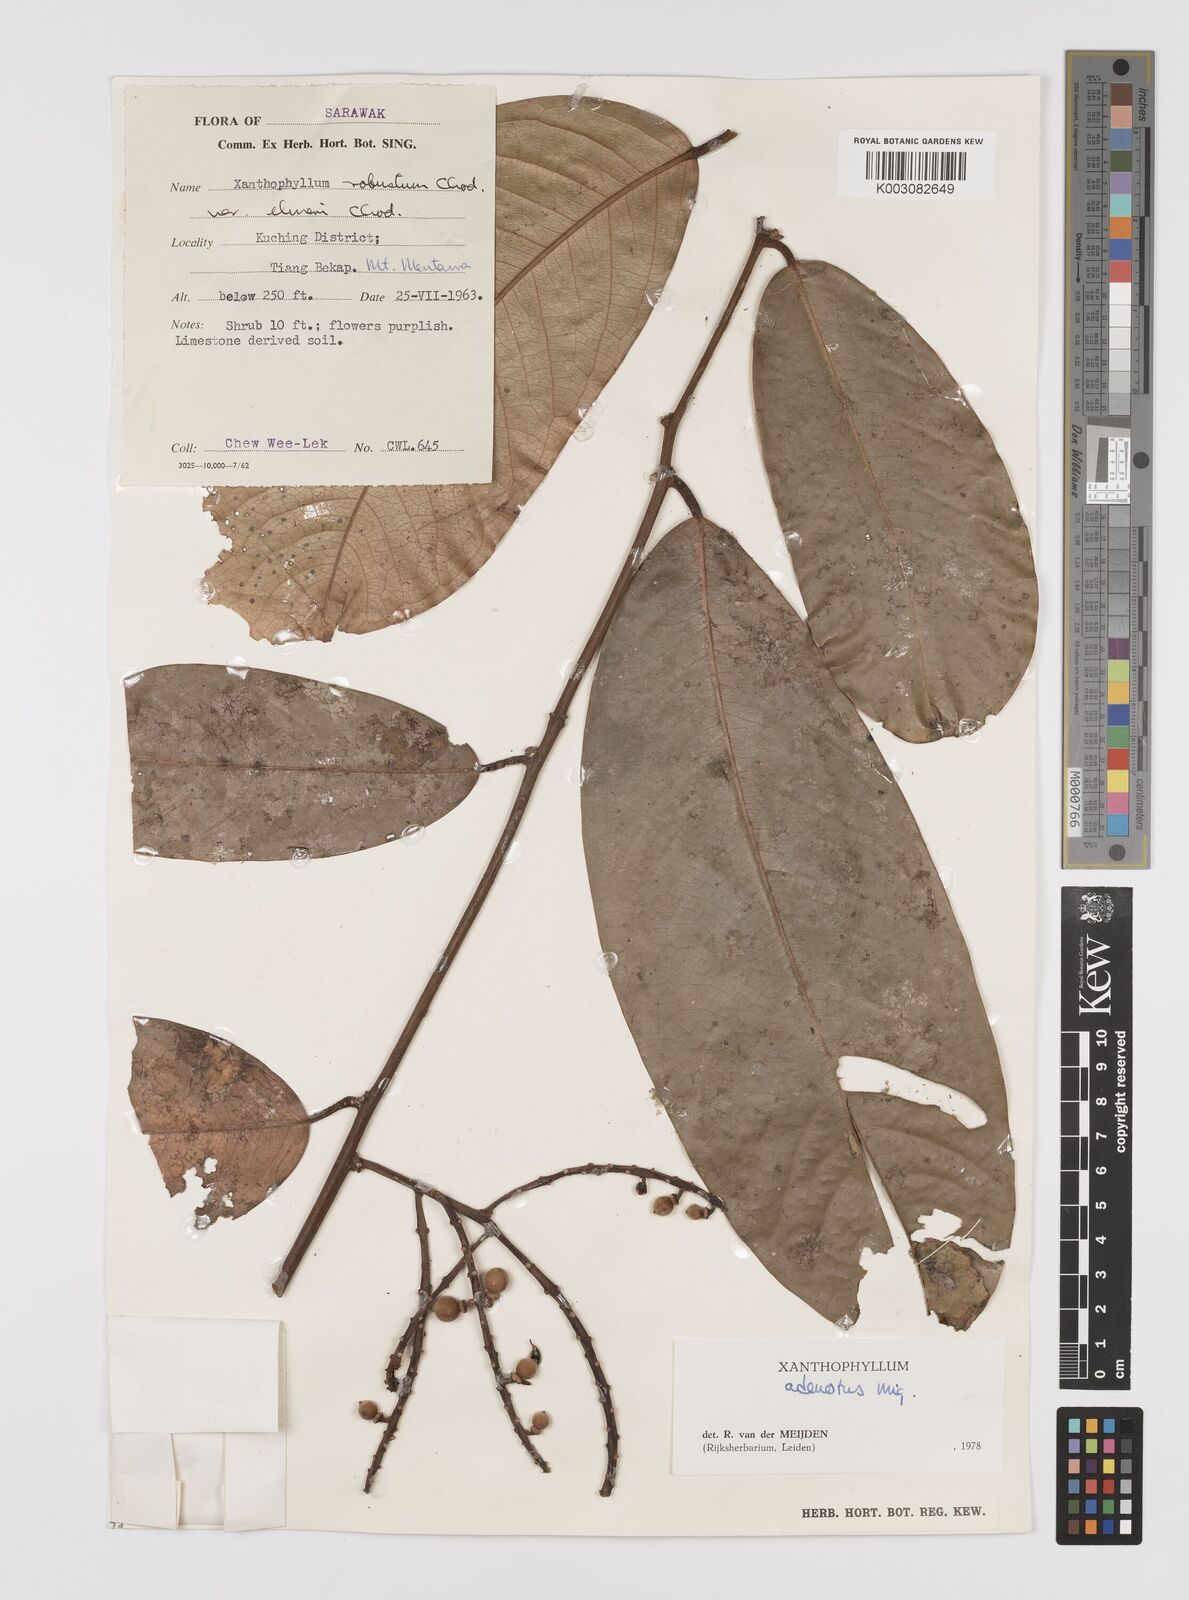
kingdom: Plantae
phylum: Tracheophyta
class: Magnoliopsida
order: Fabales
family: Polygalaceae
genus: Xanthophyllum
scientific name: Xanthophyllum adenotus
